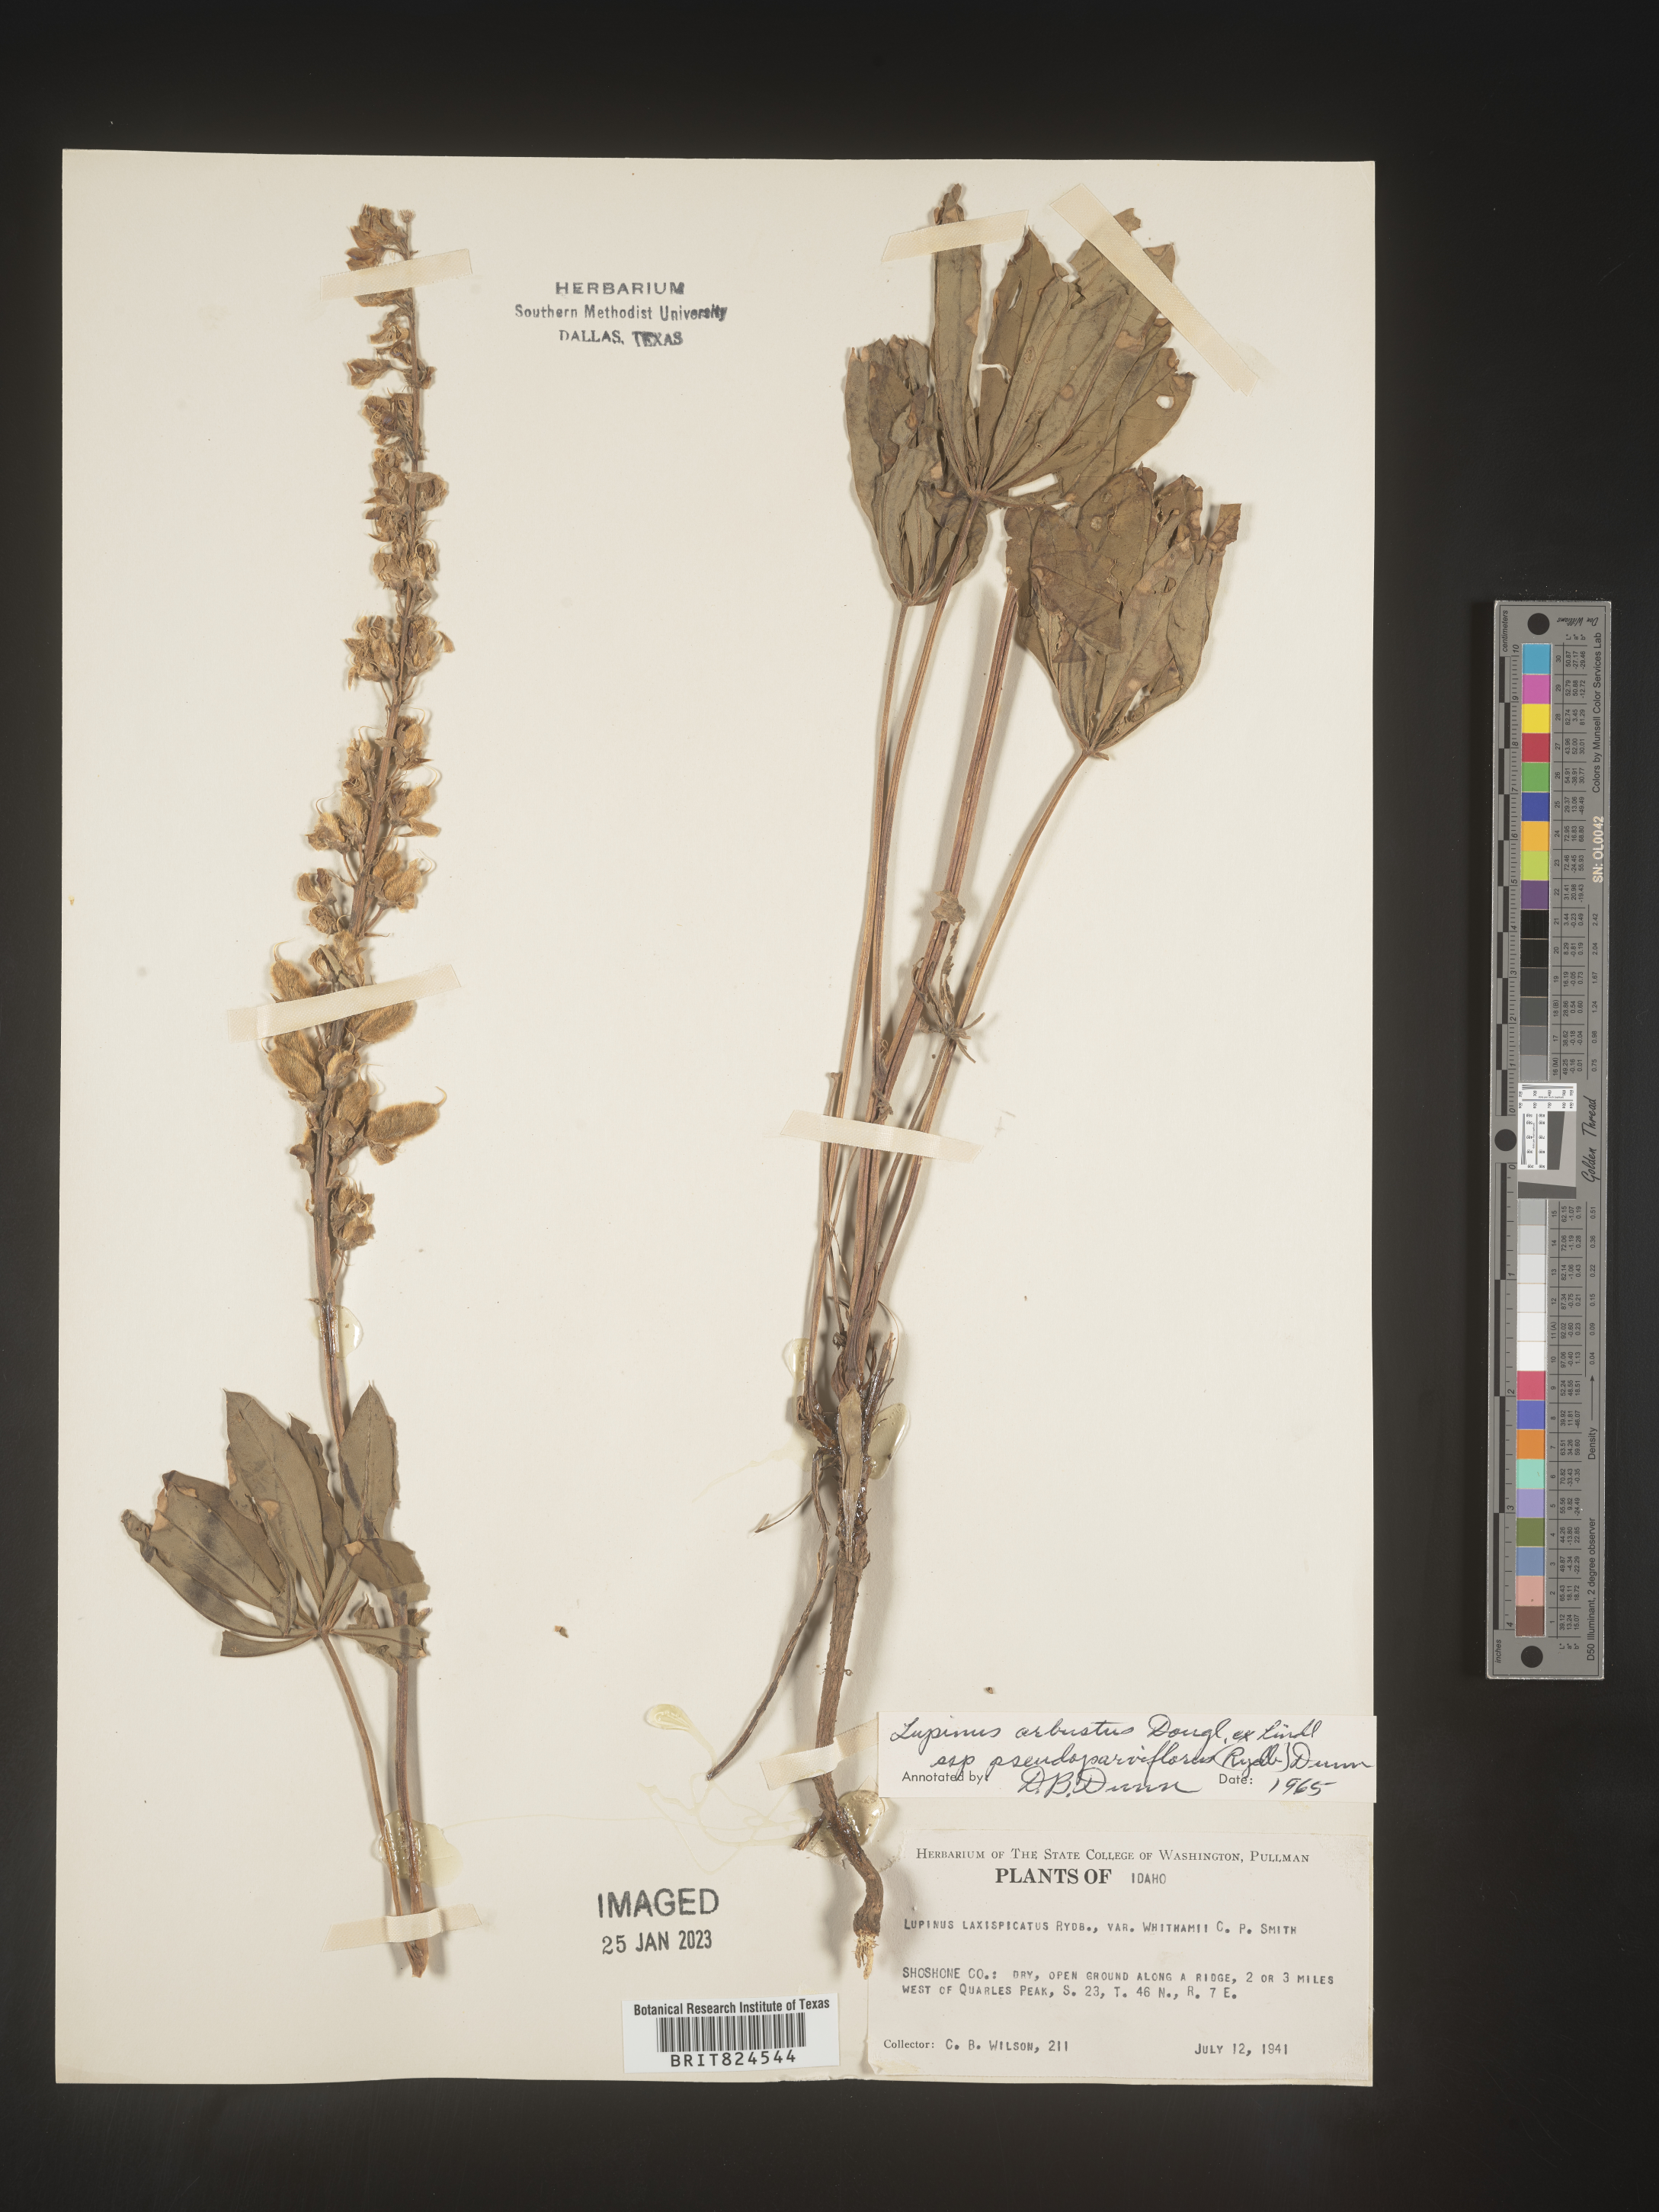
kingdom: Plantae
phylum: Tracheophyta
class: Magnoliopsida
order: Fabales
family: Fabaceae
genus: Lupinus
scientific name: Lupinus arbustus
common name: Montana lupine
